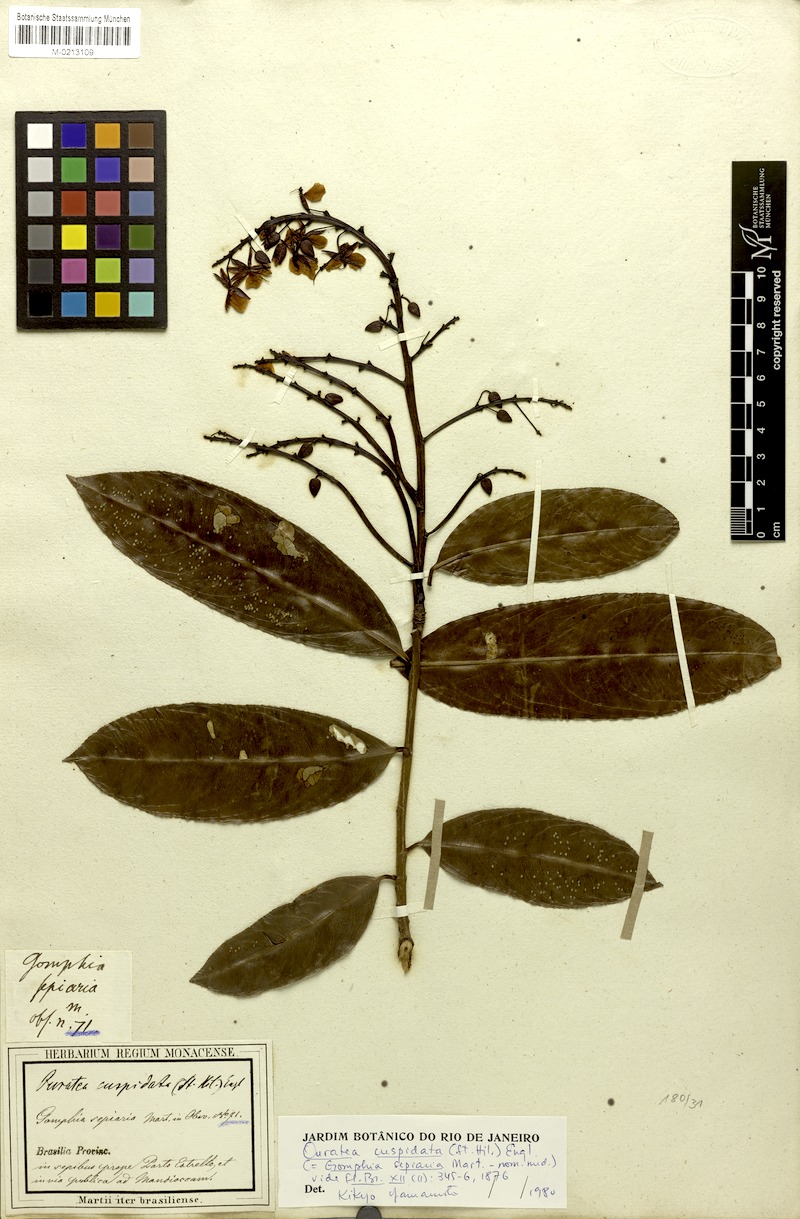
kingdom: Plantae
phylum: Tracheophyta
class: Magnoliopsida
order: Malpighiales
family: Ochnaceae
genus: Ouratea
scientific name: Ouratea cuspidata
